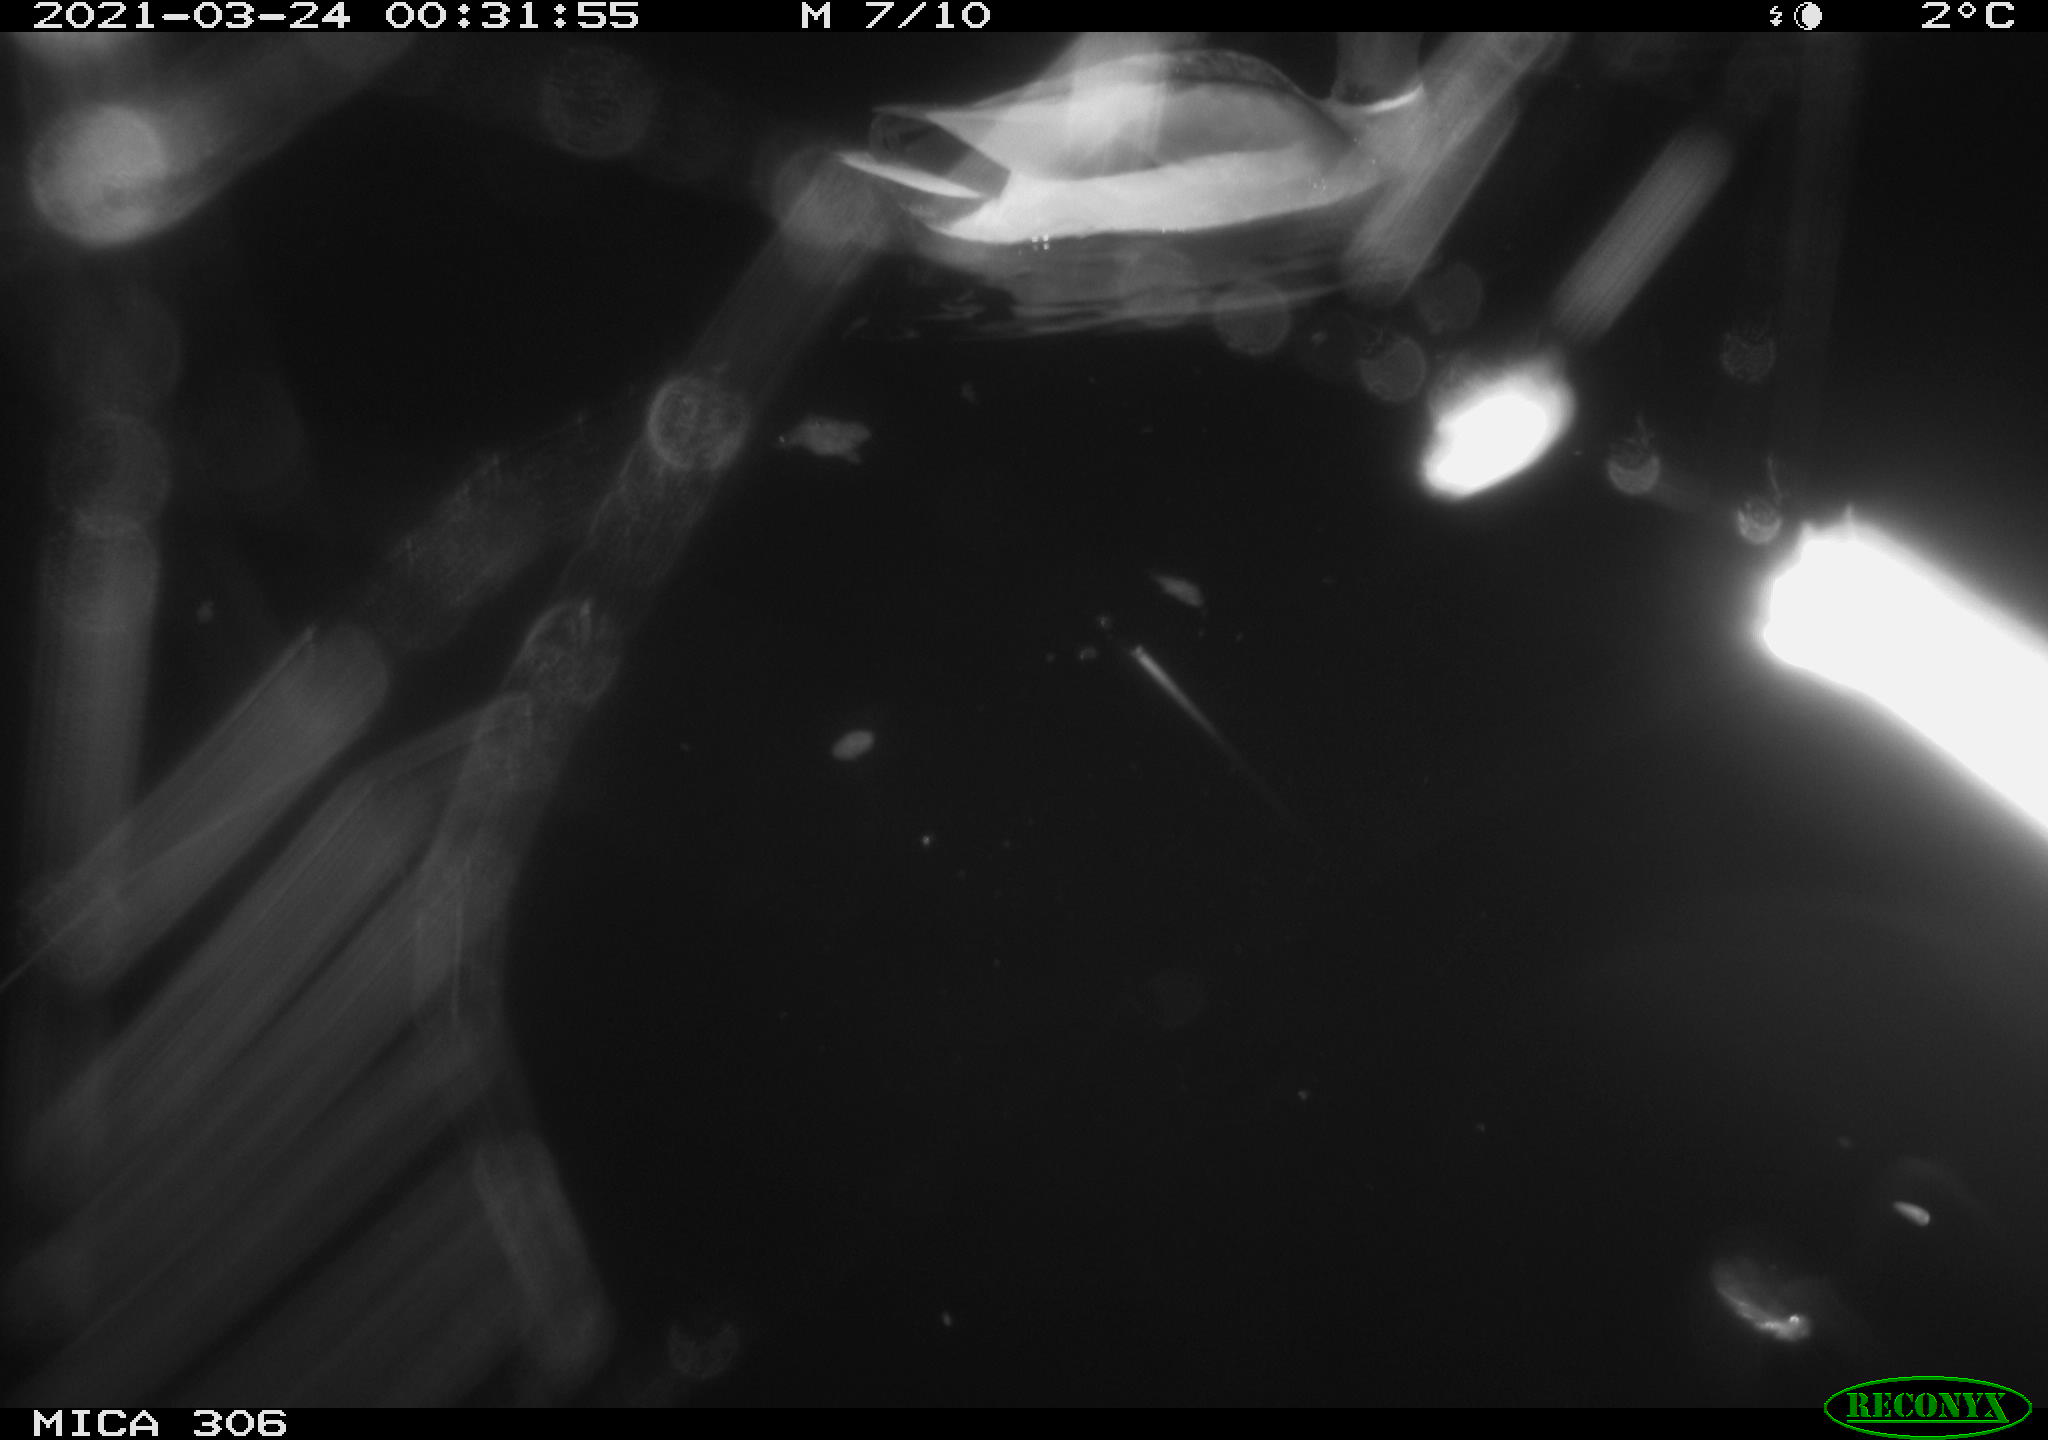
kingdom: Animalia
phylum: Chordata
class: Aves
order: Anseriformes
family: Anatidae
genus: Anas
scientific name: Anas platyrhynchos
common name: Mallard
